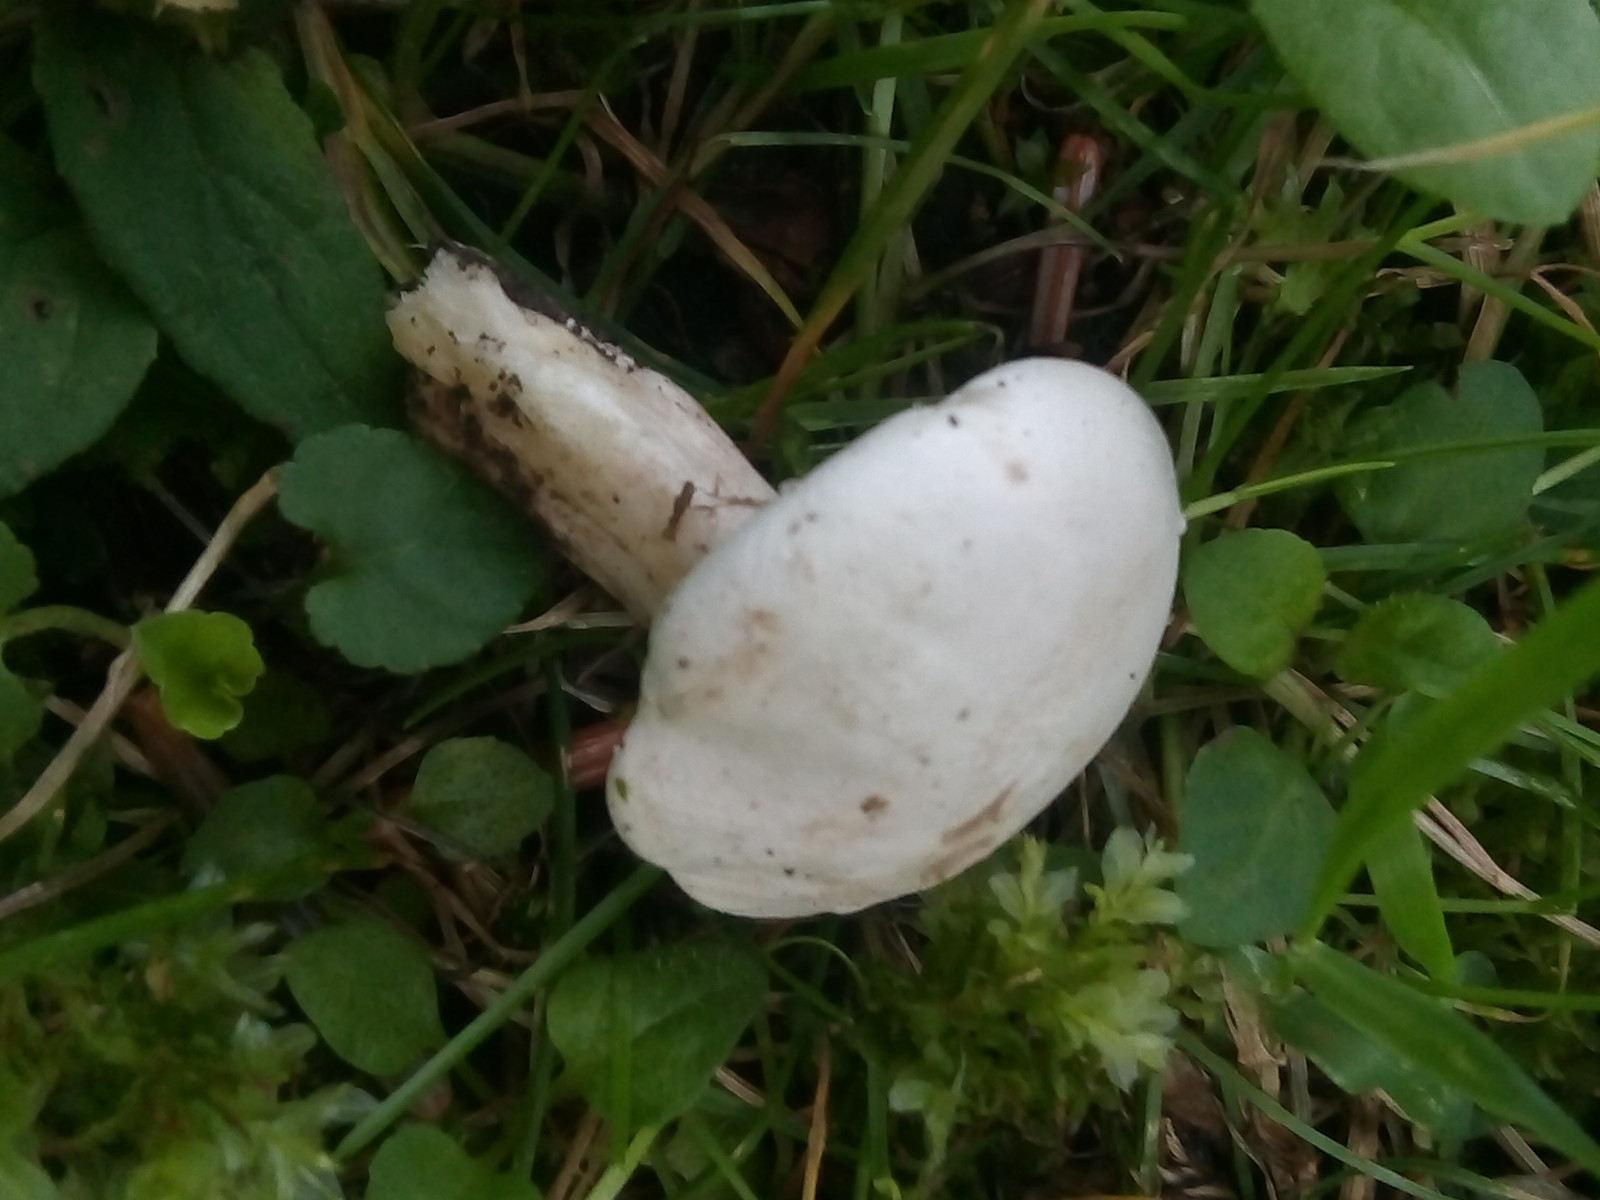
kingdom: Fungi
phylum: Basidiomycota
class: Agaricomycetes
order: Agaricales
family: Entolomataceae
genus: Clitopilus
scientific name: Clitopilus prunulus
